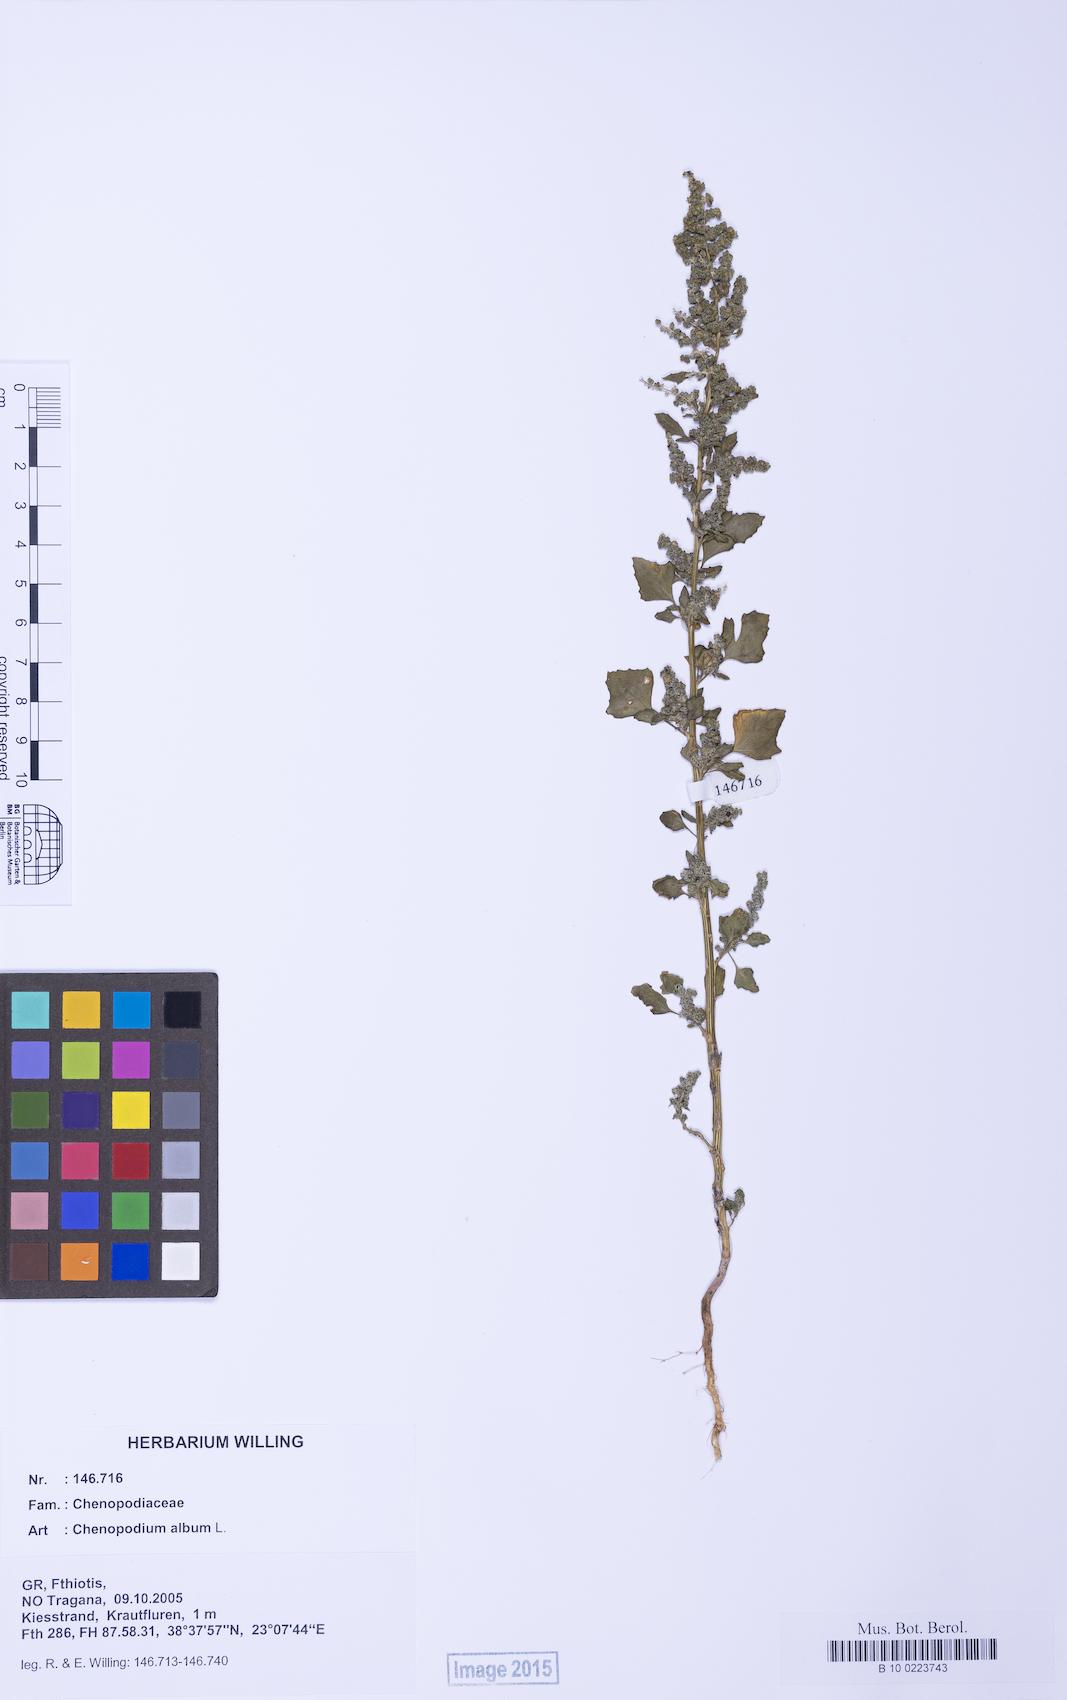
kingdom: Plantae
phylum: Tracheophyta
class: Magnoliopsida
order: Caryophyllales
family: Amaranthaceae
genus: Chenopodium
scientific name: Chenopodium album
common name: Fat-hen
